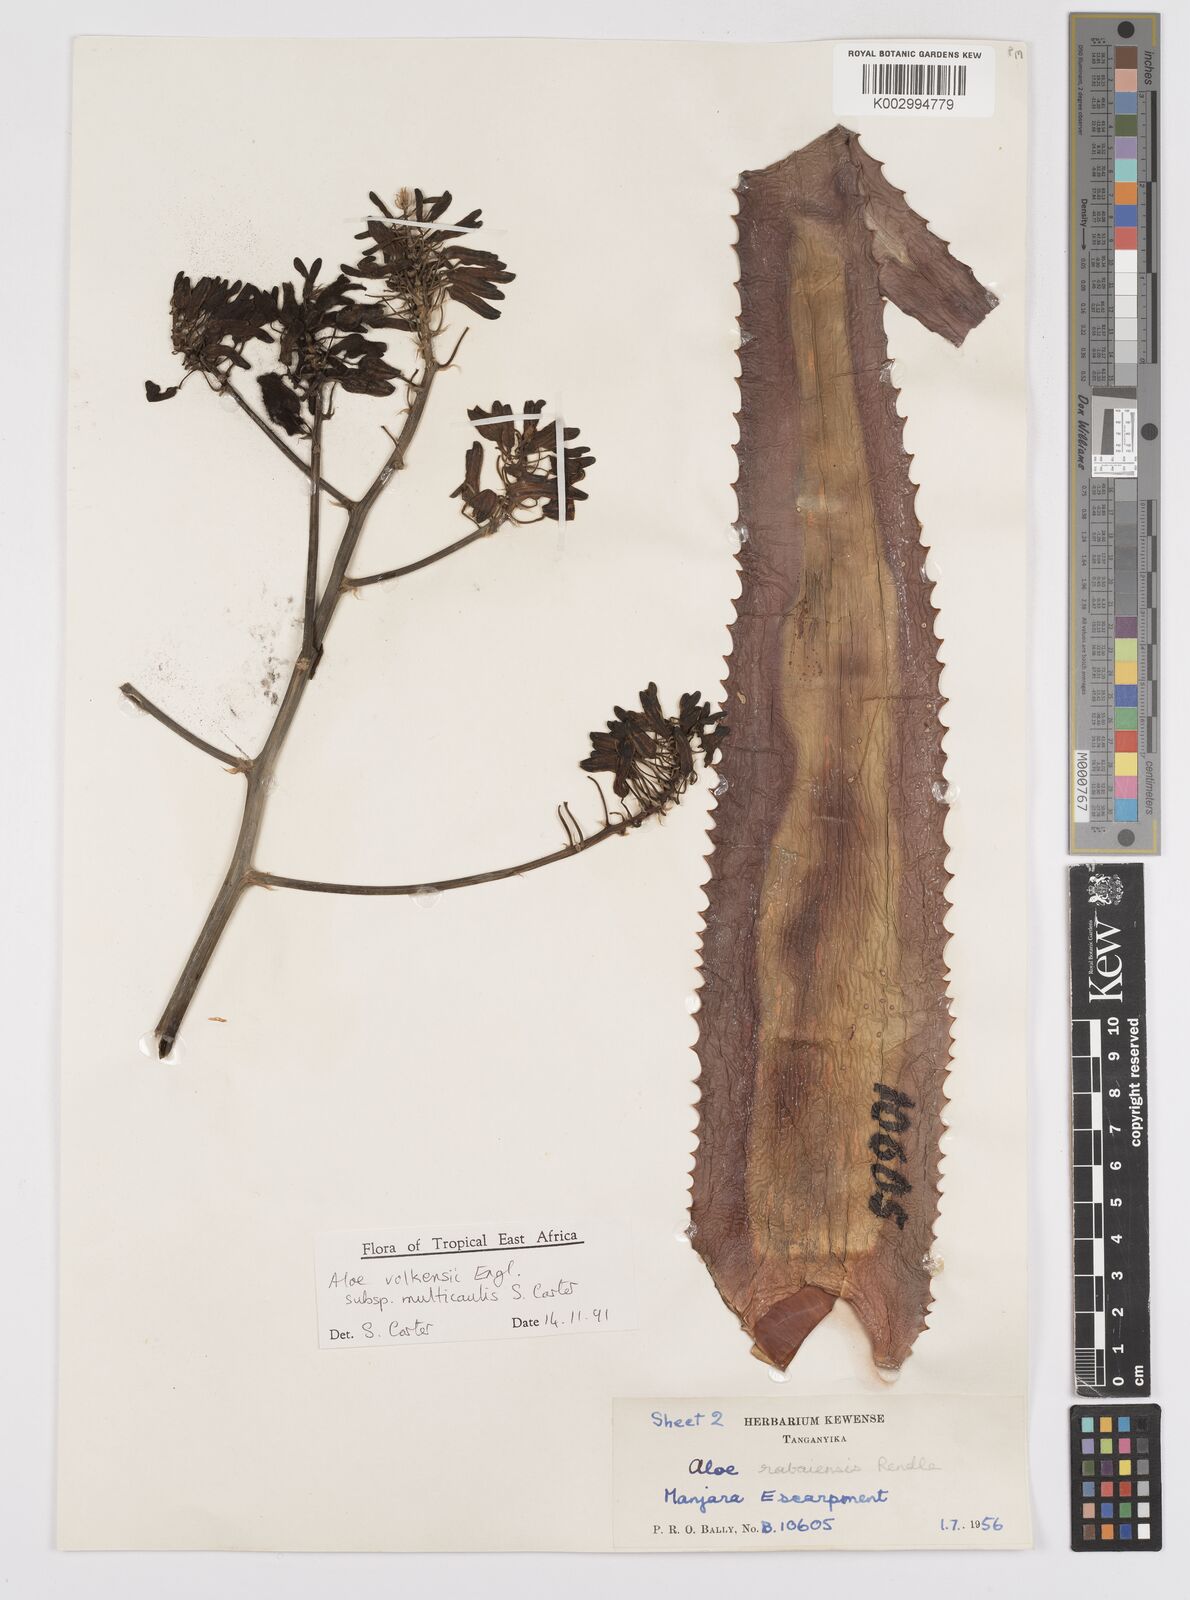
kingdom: Plantae
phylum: Tracheophyta
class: Liliopsida
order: Asparagales
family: Asphodelaceae
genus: Aloe
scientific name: Aloe volkensii
